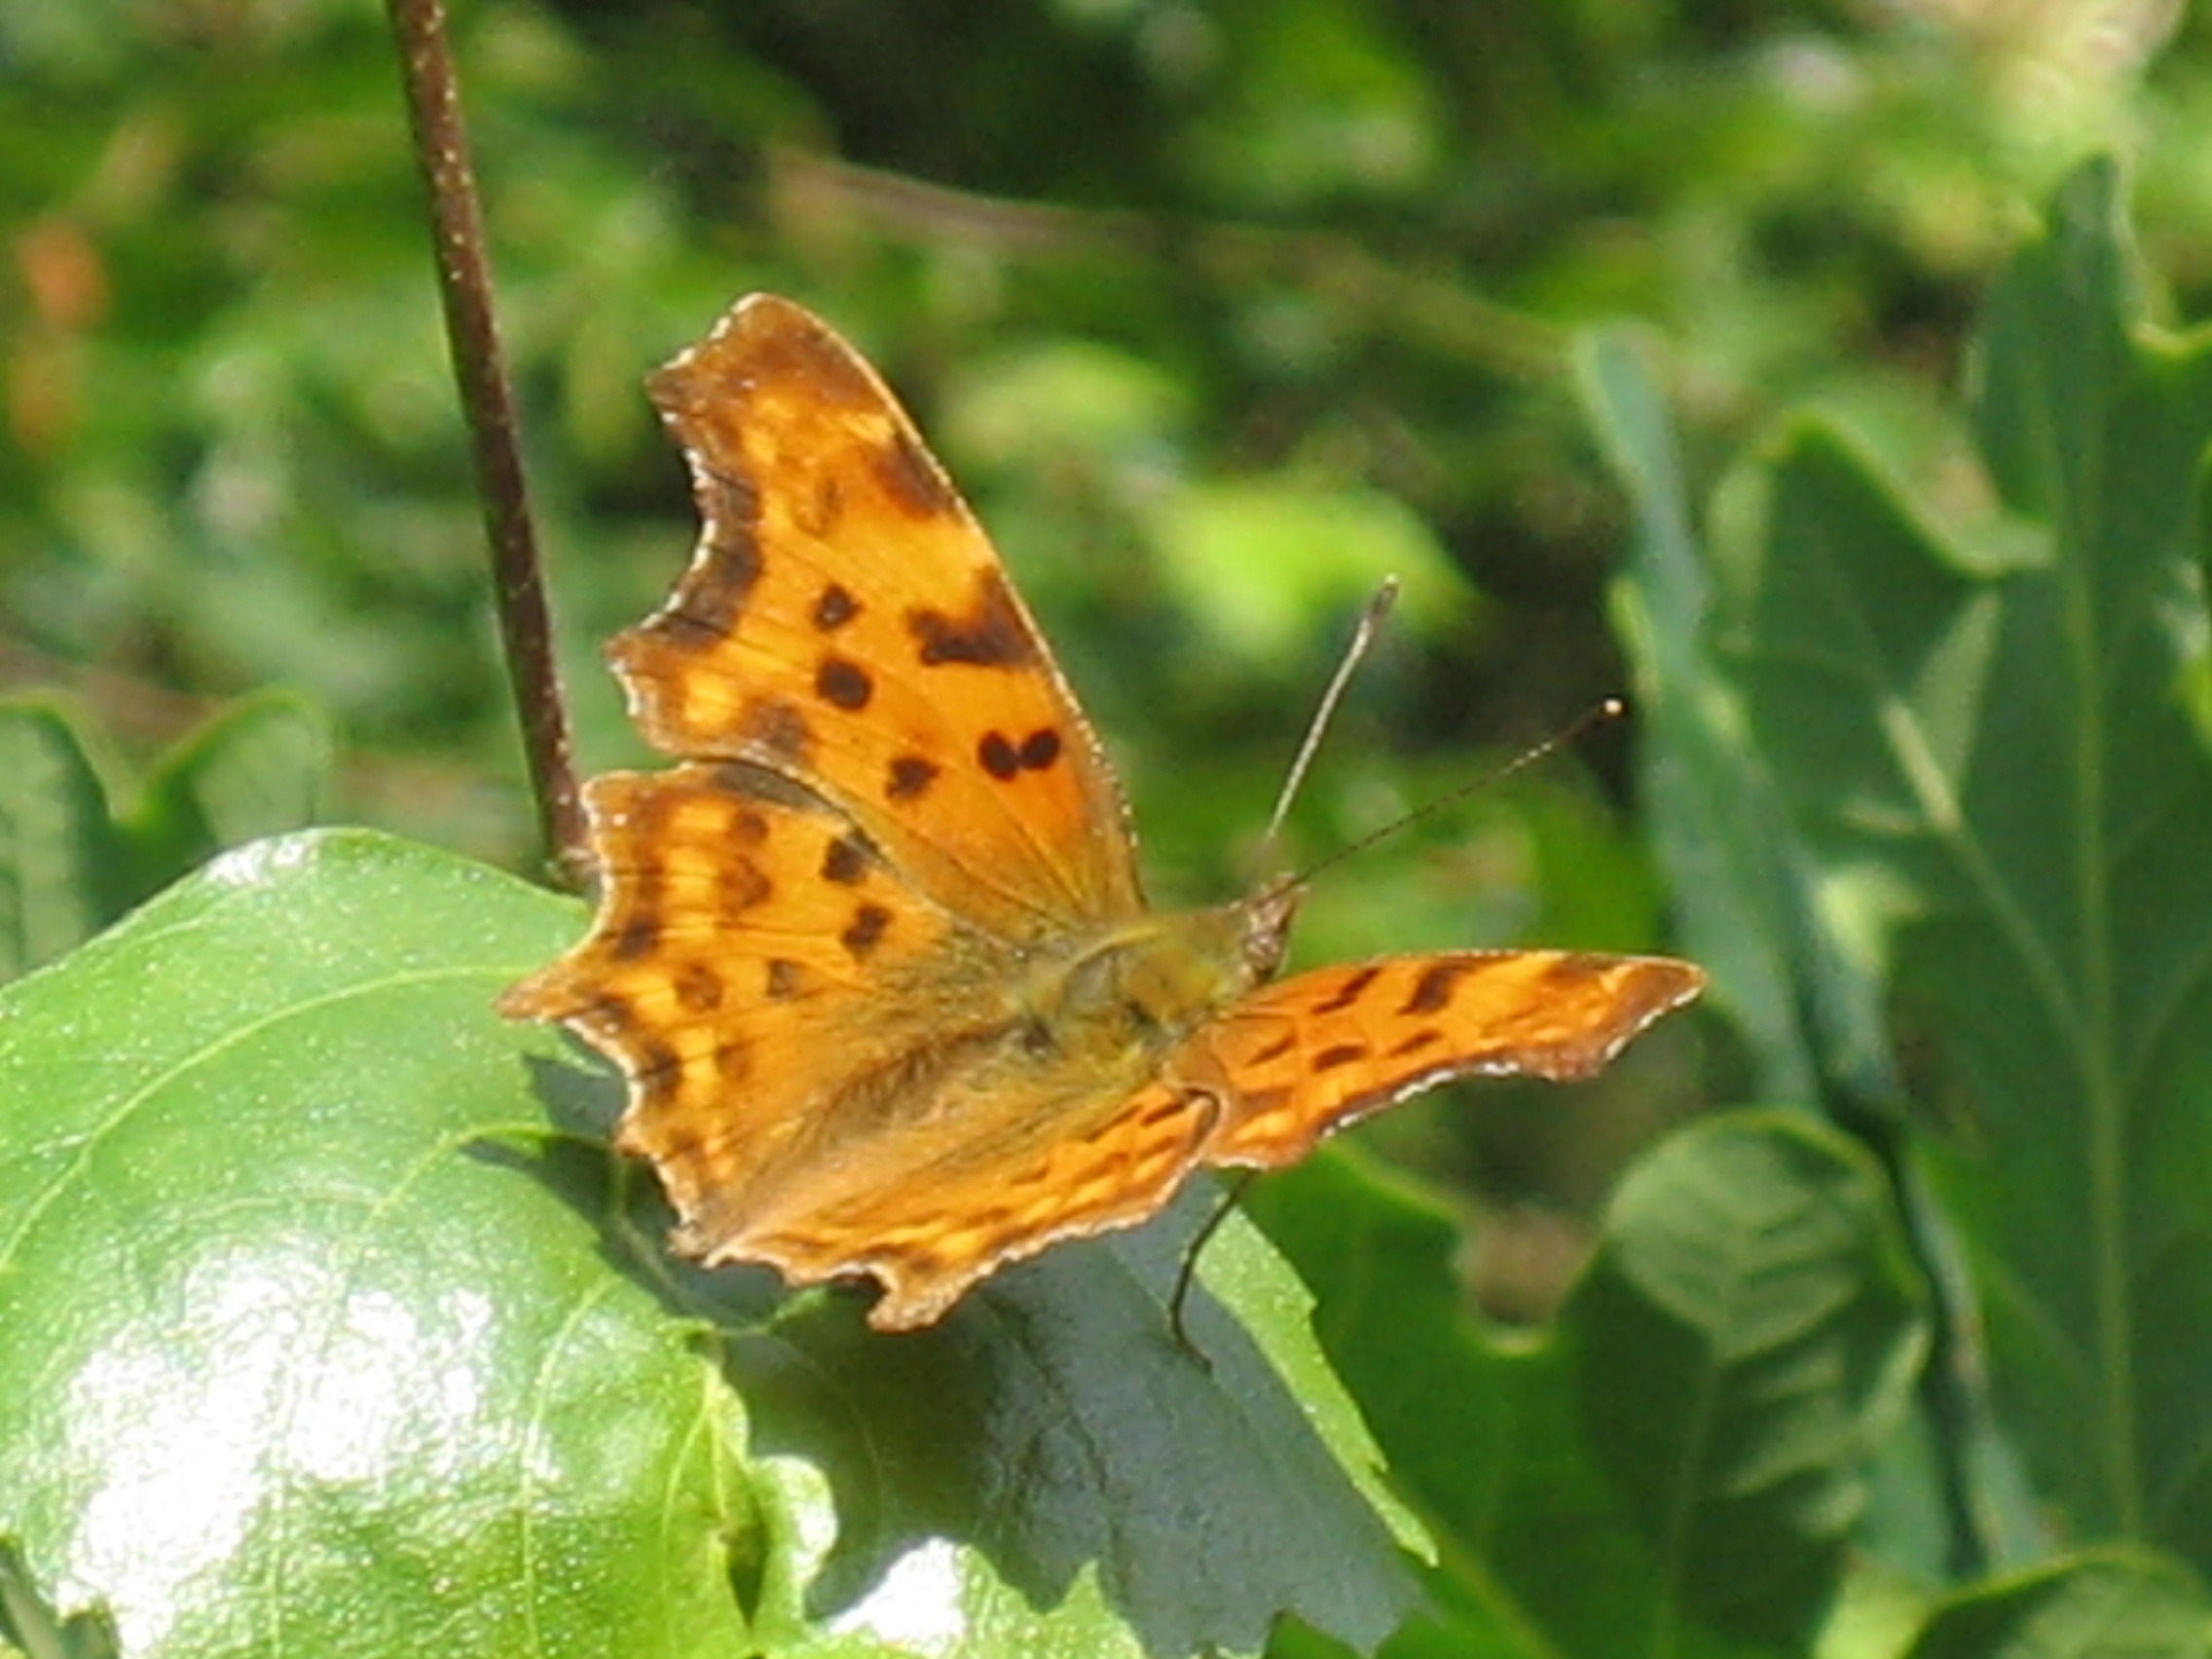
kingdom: Animalia
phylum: Arthropoda
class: Insecta
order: Lepidoptera
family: Nymphalidae
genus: Polygonia
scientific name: Polygonia c-album
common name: Det hvide C
